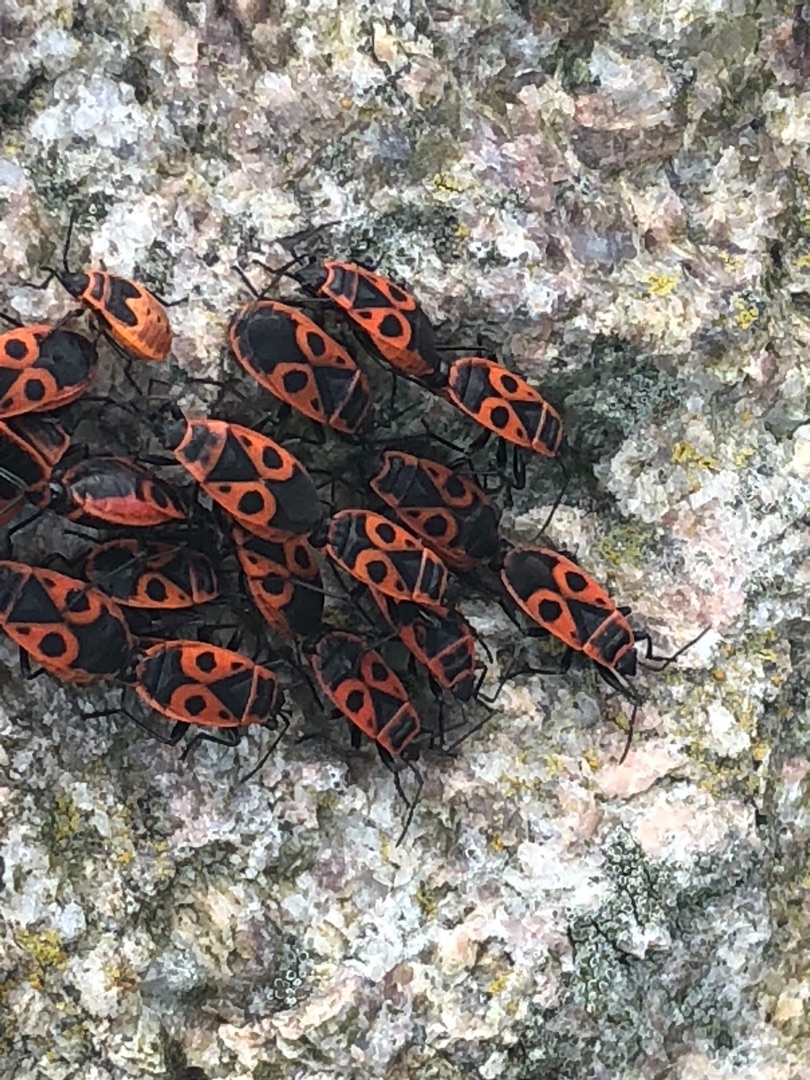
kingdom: Animalia
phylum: Arthropoda
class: Insecta
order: Hemiptera
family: Pyrrhocoridae
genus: Pyrrhocoris
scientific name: Pyrrhocoris apterus
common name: Ildtæge
